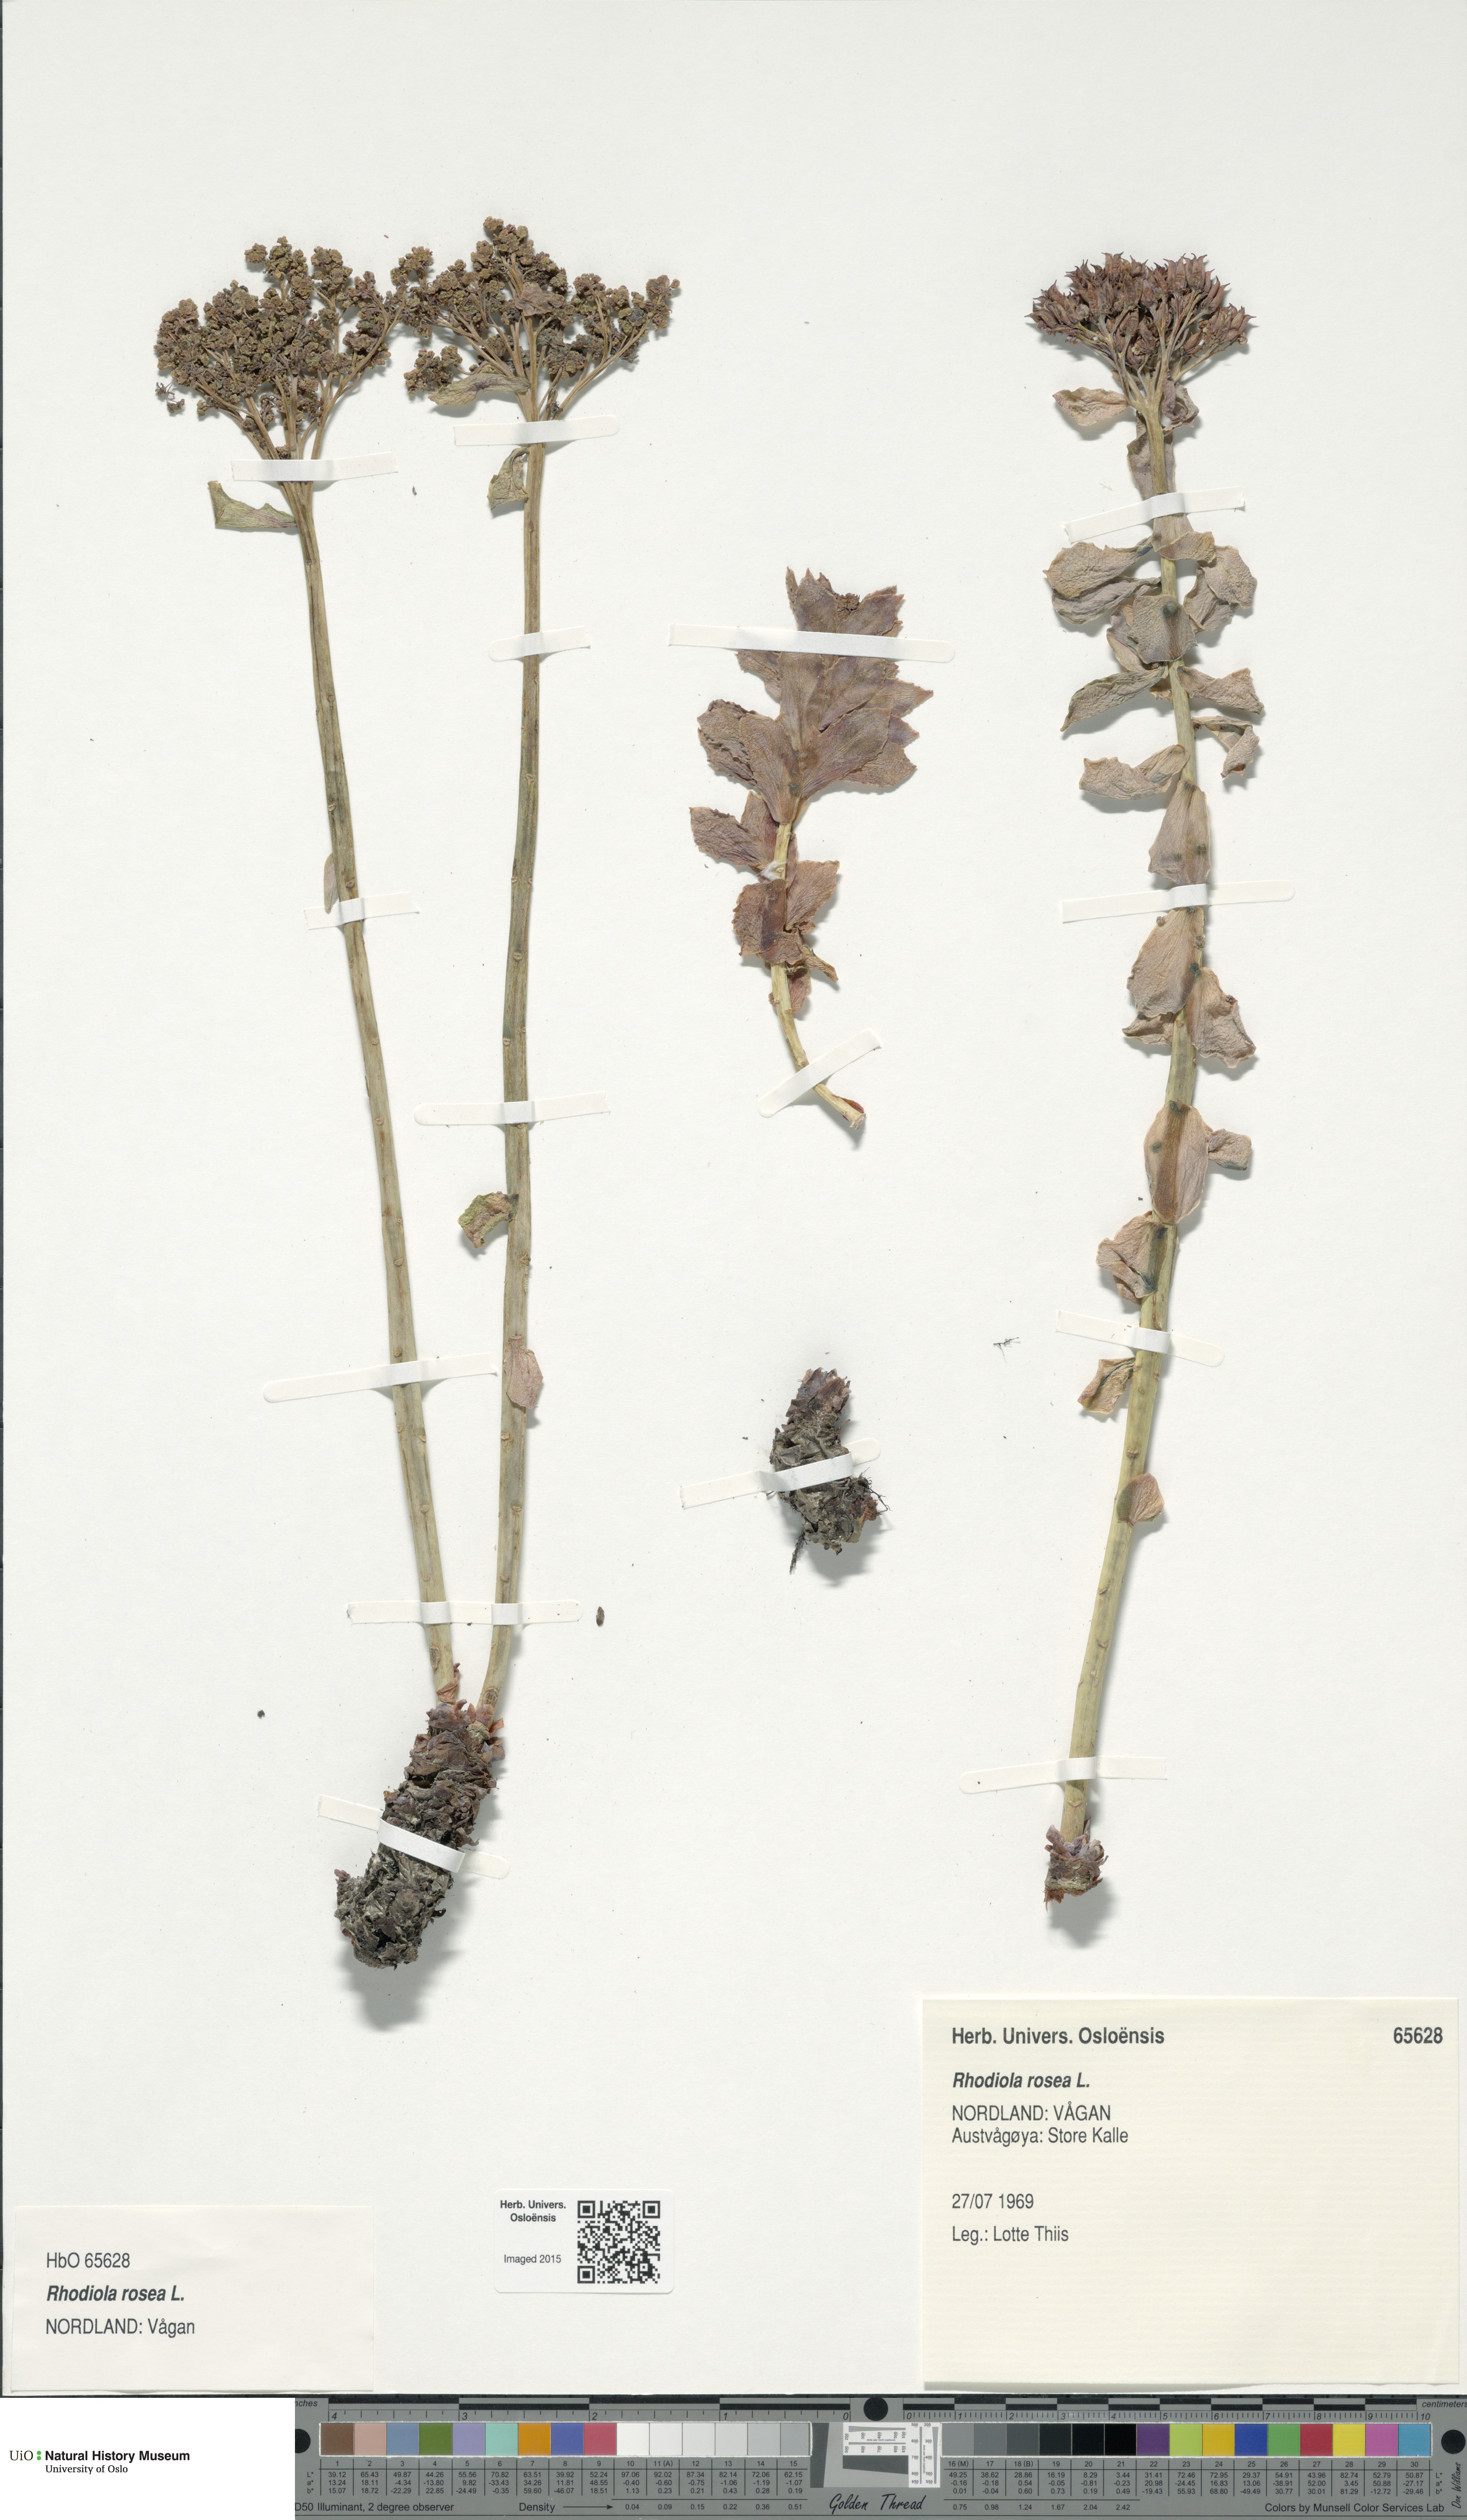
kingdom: Plantae
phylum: Tracheophyta
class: Magnoliopsida
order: Saxifragales
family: Crassulaceae
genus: Rhodiola
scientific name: Rhodiola rosea
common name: Roseroot
